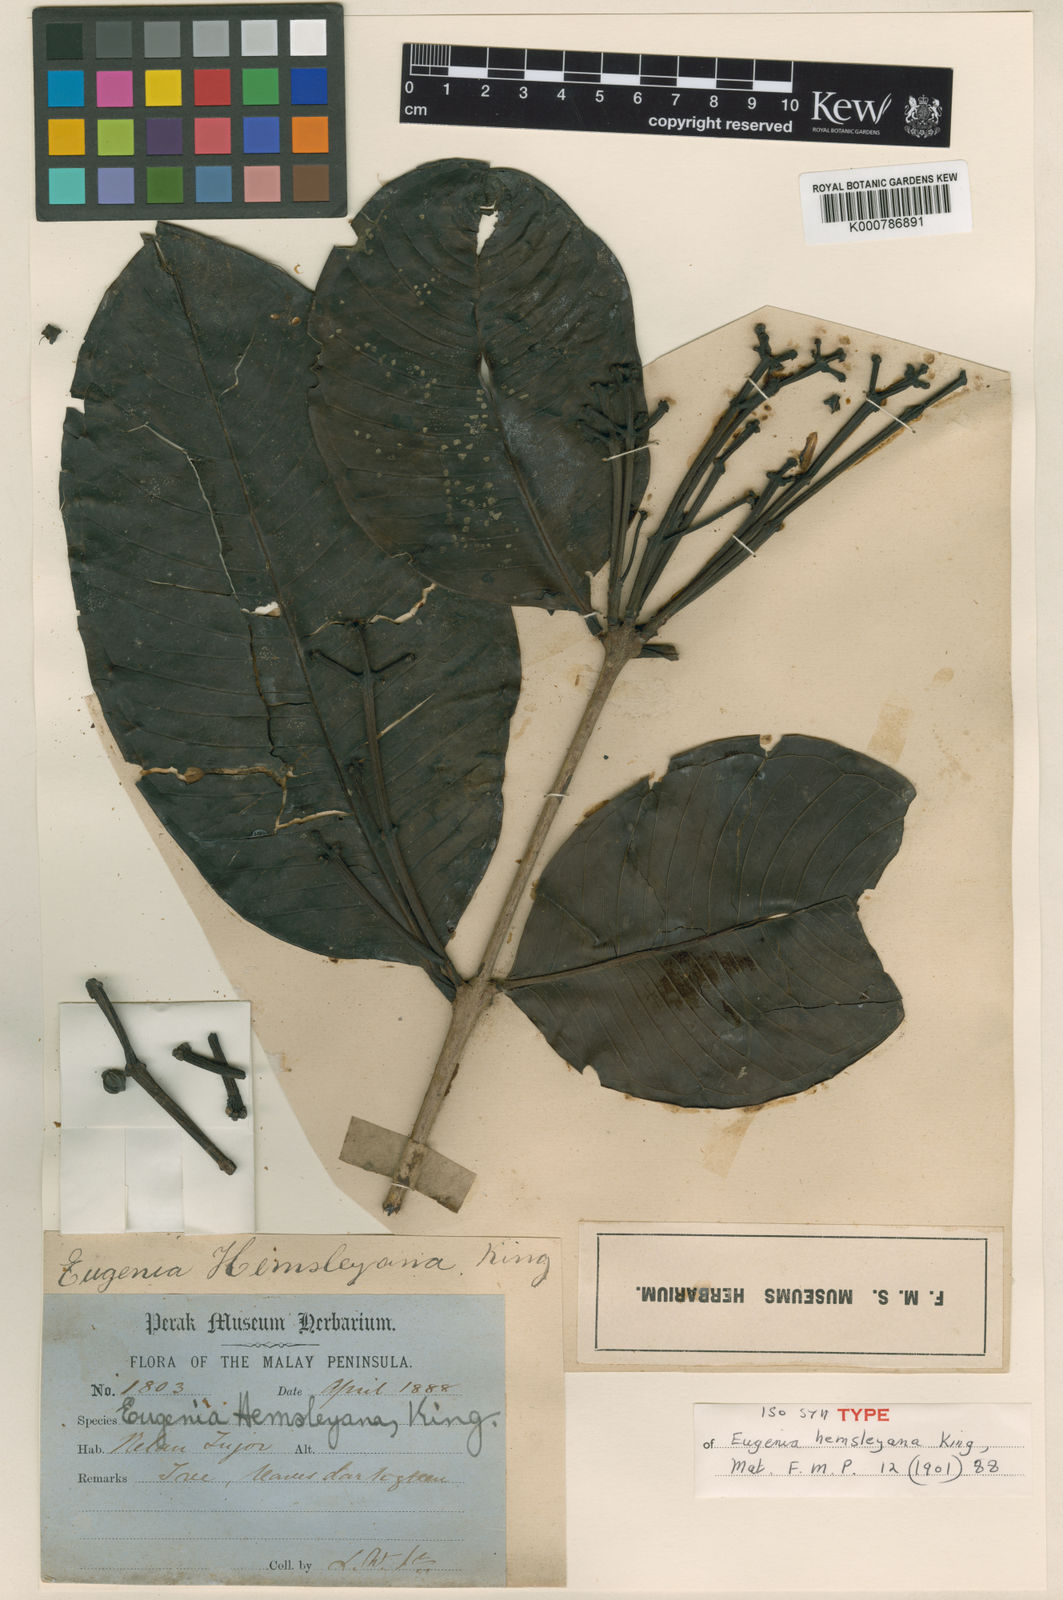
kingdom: Plantae
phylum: Tracheophyta
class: Magnoliopsida
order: Myrtales
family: Myrtaceae
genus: Syzygium
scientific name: Syzygium hemsleyanum
